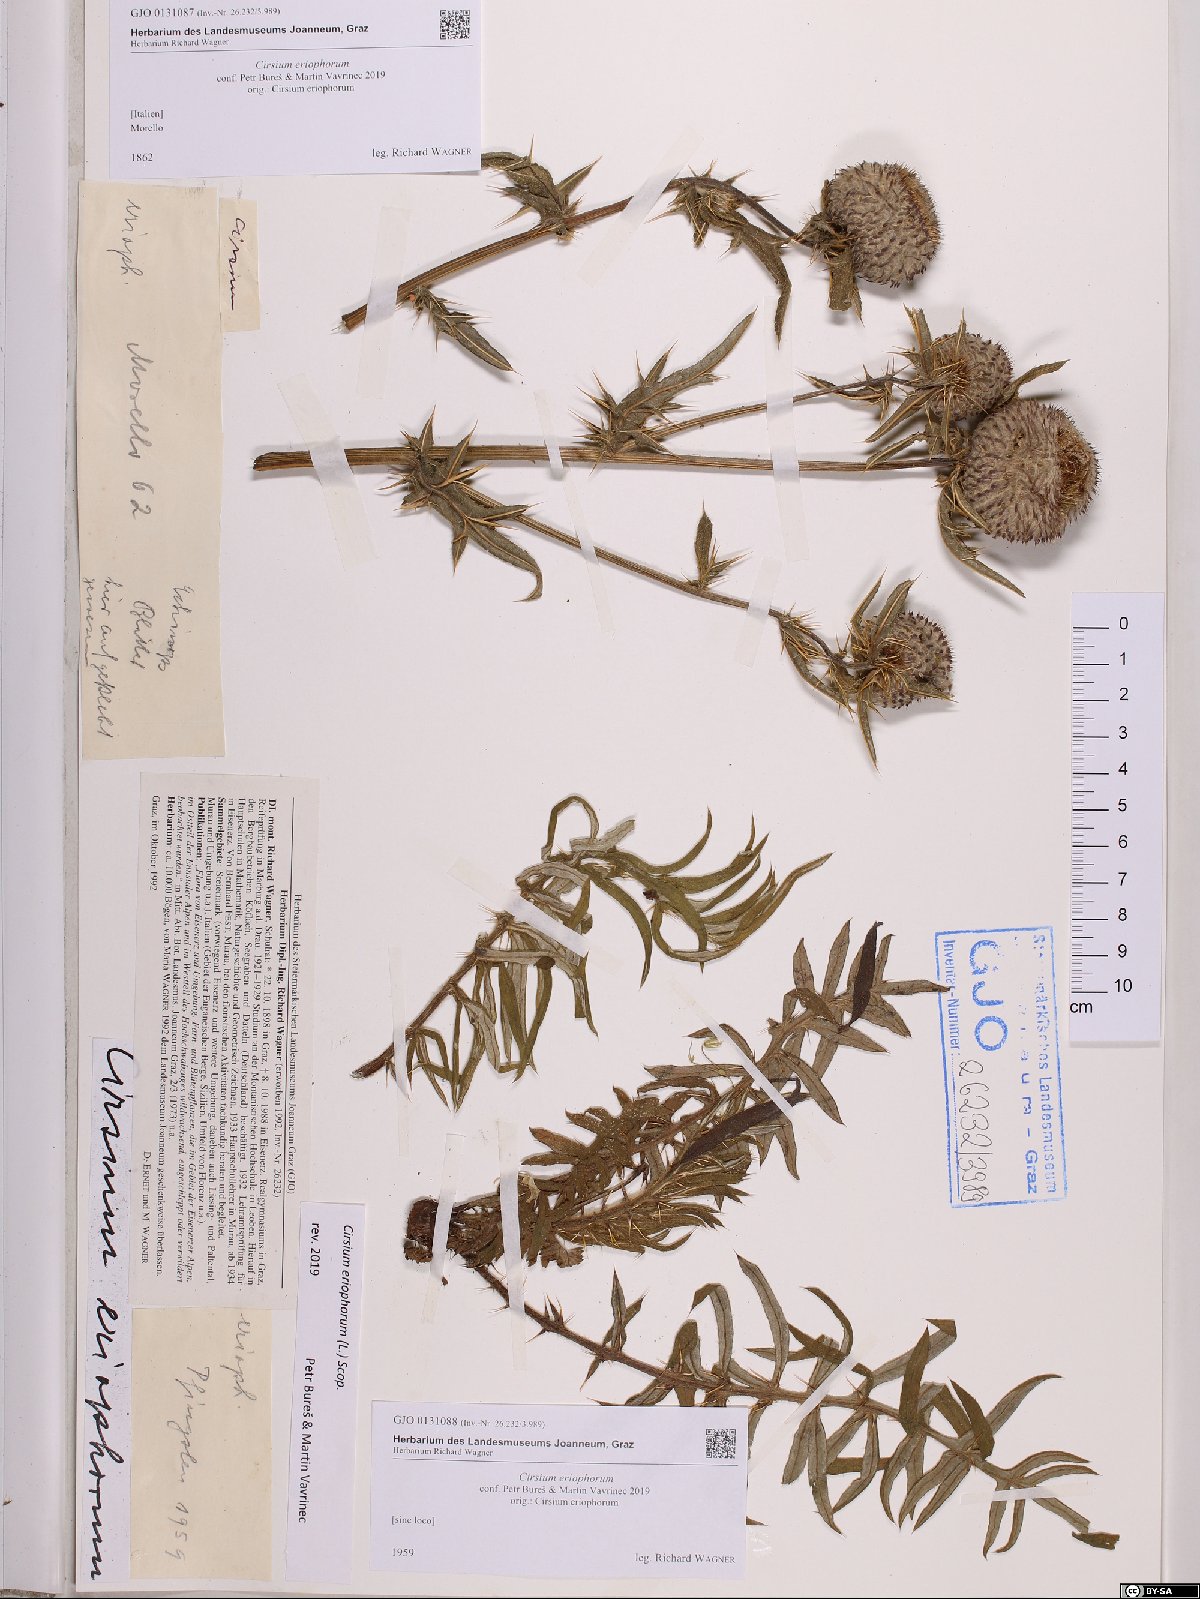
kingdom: Plantae
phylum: Tracheophyta
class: Magnoliopsida
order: Asterales
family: Asteraceae
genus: Lophiolepis
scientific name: Lophiolepis eriophora
